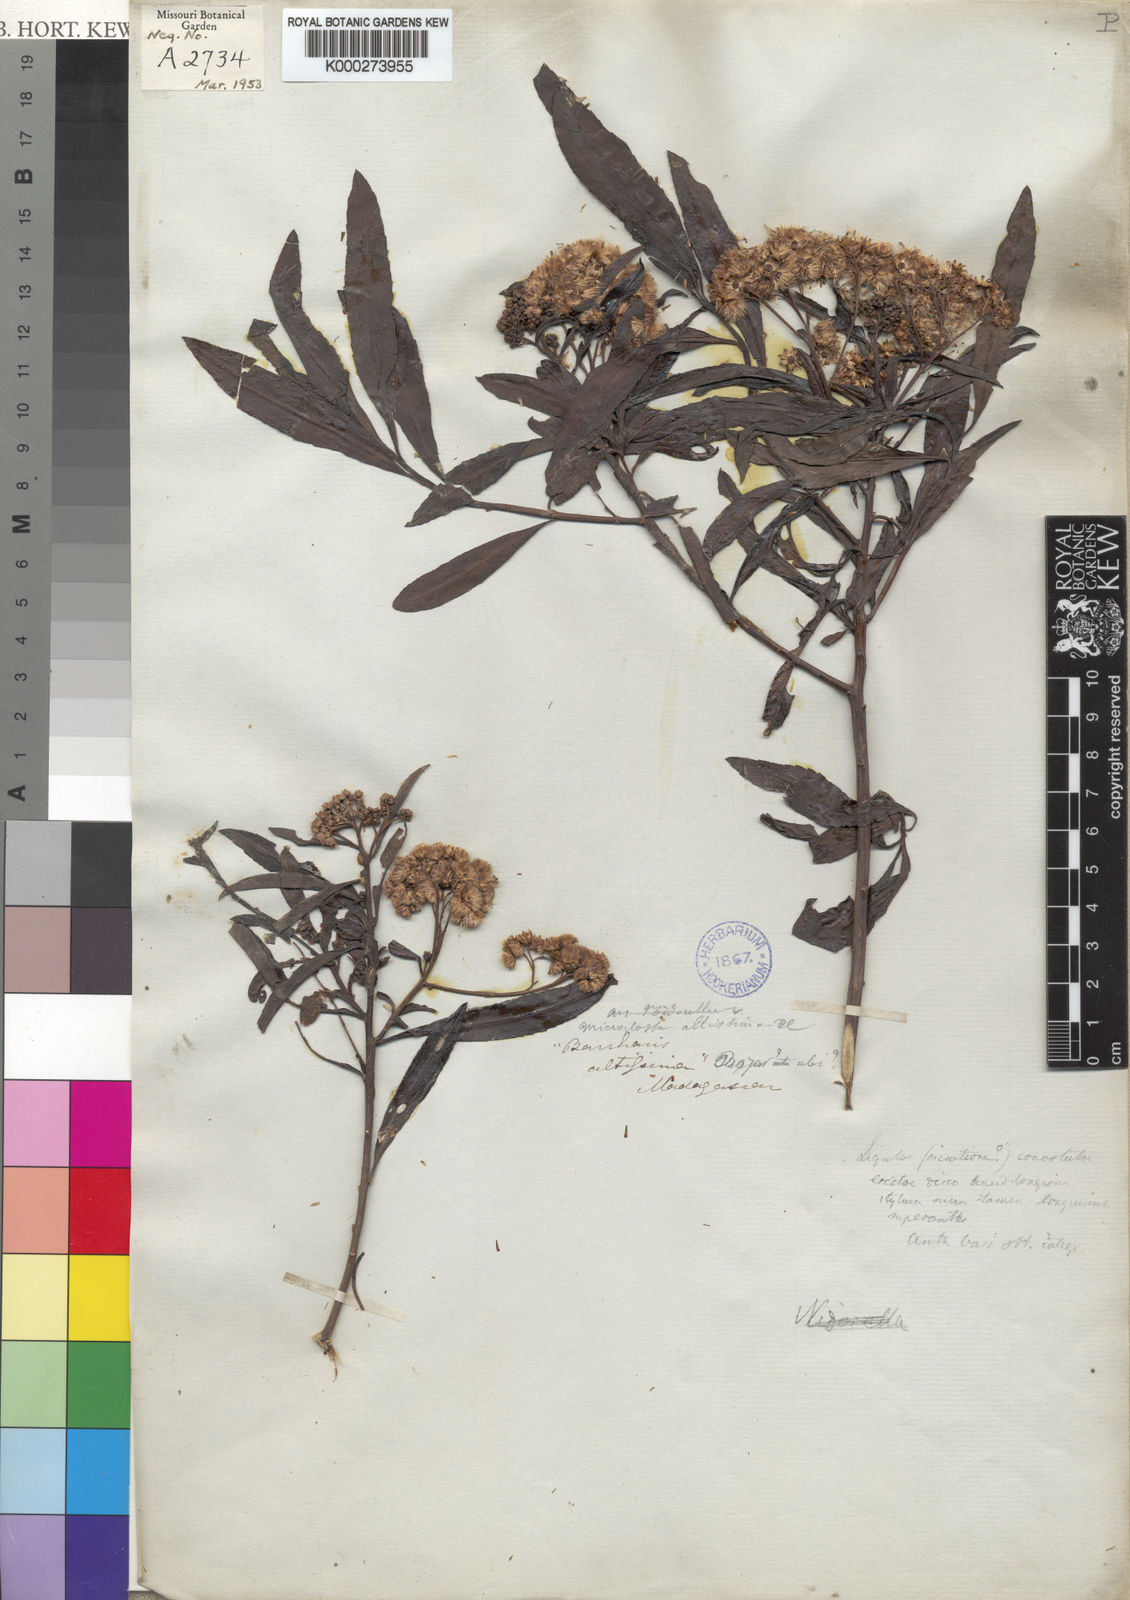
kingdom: Plantae
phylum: Tracheophyta
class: Magnoliopsida
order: Asterales
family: Asteraceae
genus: Psiadia
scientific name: Psiadia altissima
